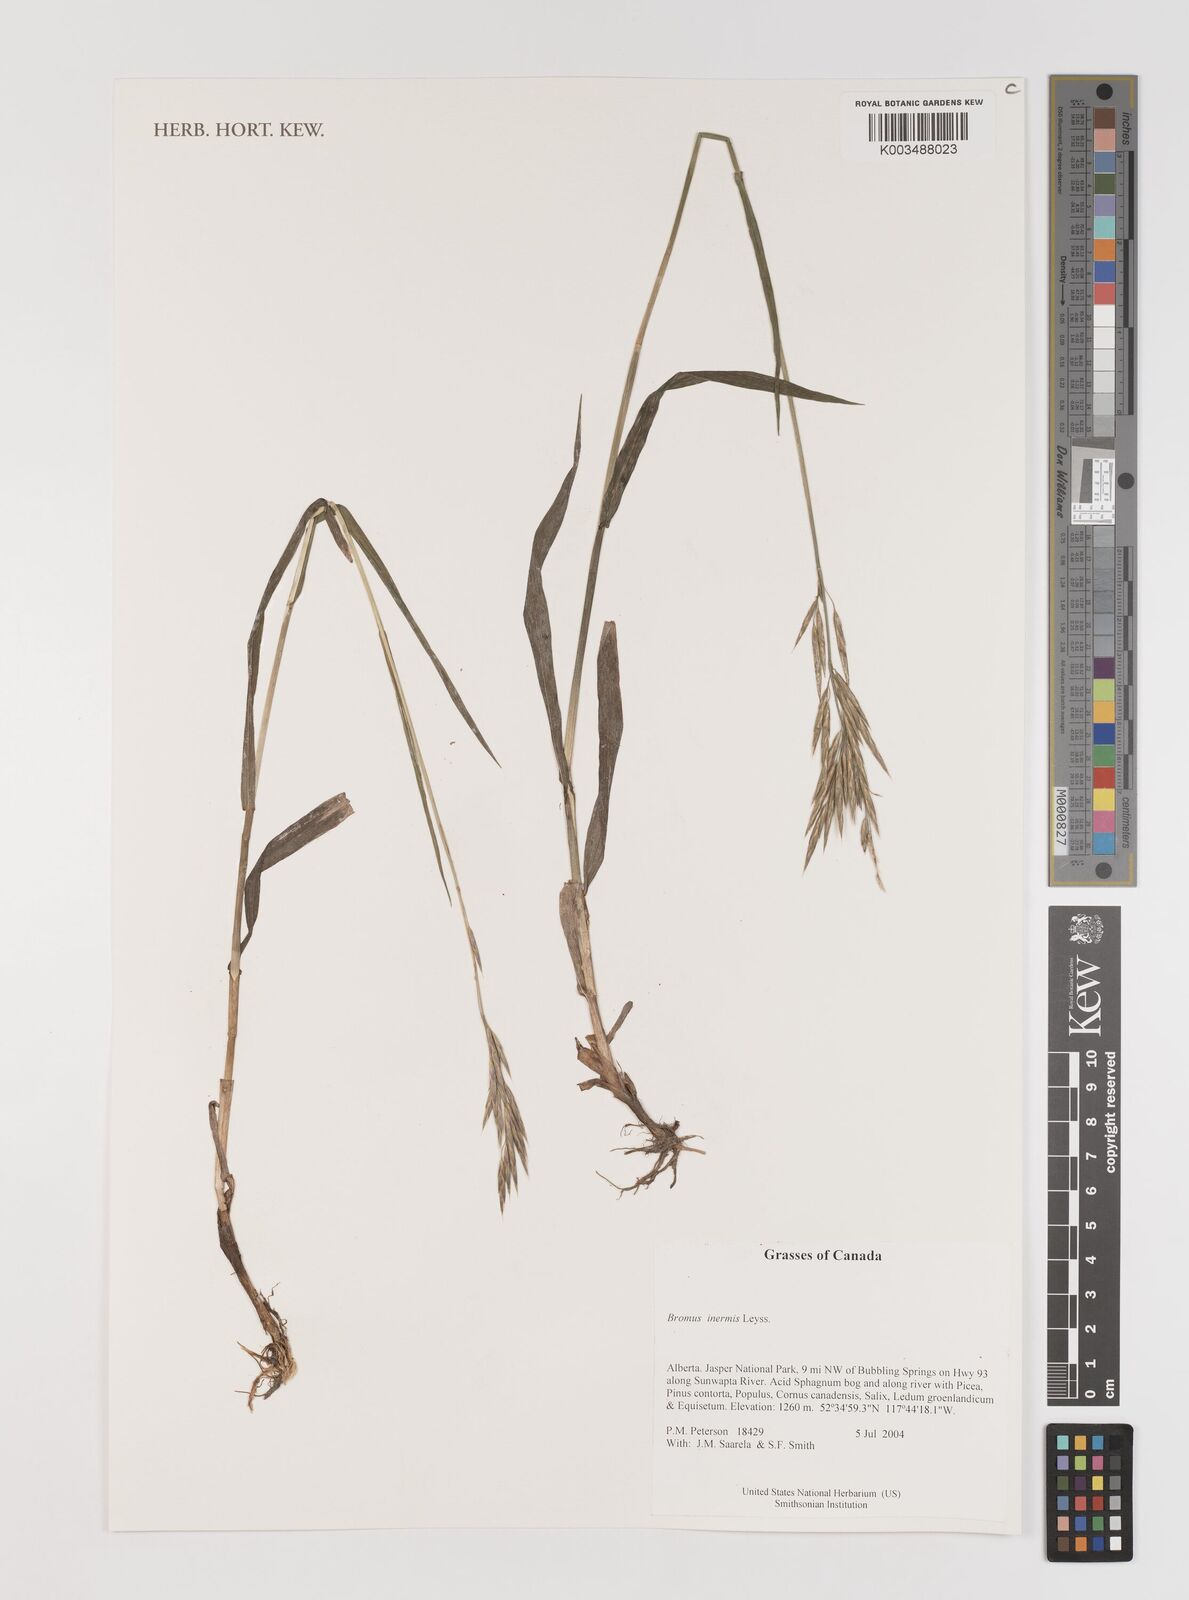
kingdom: Plantae
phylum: Tracheophyta
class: Liliopsida
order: Poales
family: Poaceae
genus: Bromus
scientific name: Bromus inermis
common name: Smooth brome
